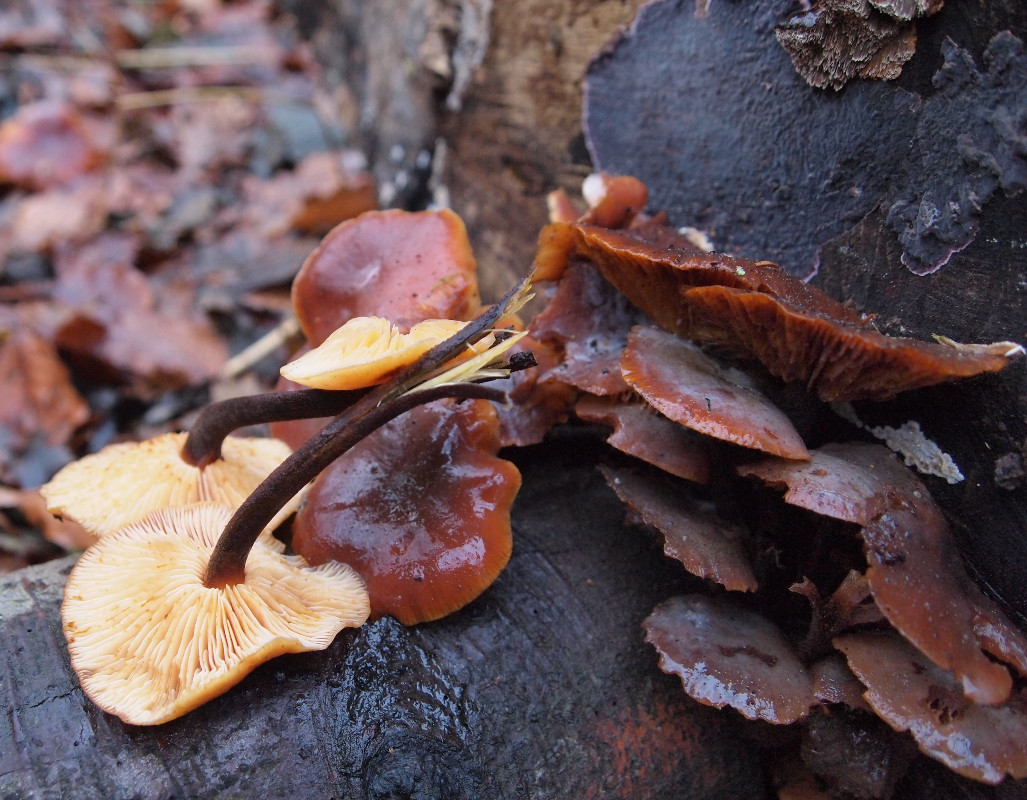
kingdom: Fungi
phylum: Basidiomycota
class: Agaricomycetes
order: Agaricales
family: Physalacriaceae
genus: Flammulina
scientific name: Flammulina velutipes
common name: gul fløjlsfod
